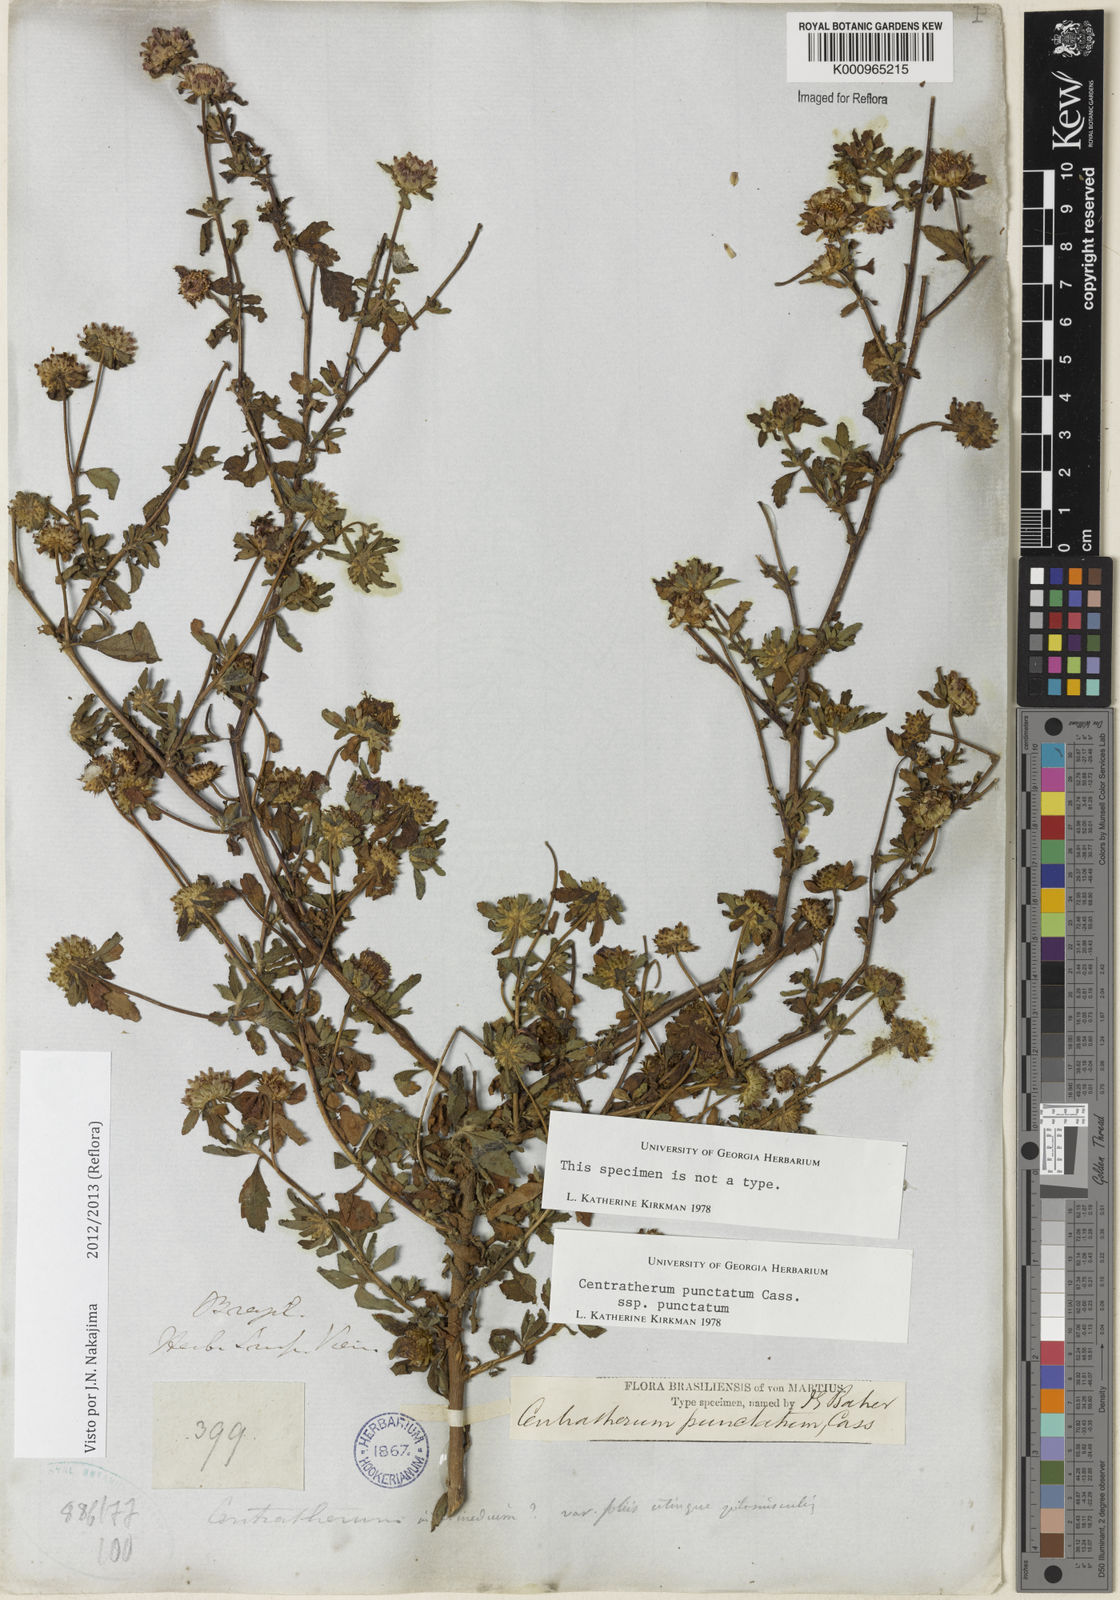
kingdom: Plantae
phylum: Tracheophyta
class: Magnoliopsida
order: Asterales
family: Asteraceae
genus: Centratherum
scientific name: Centratherum punctatum
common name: Larkdaisy
